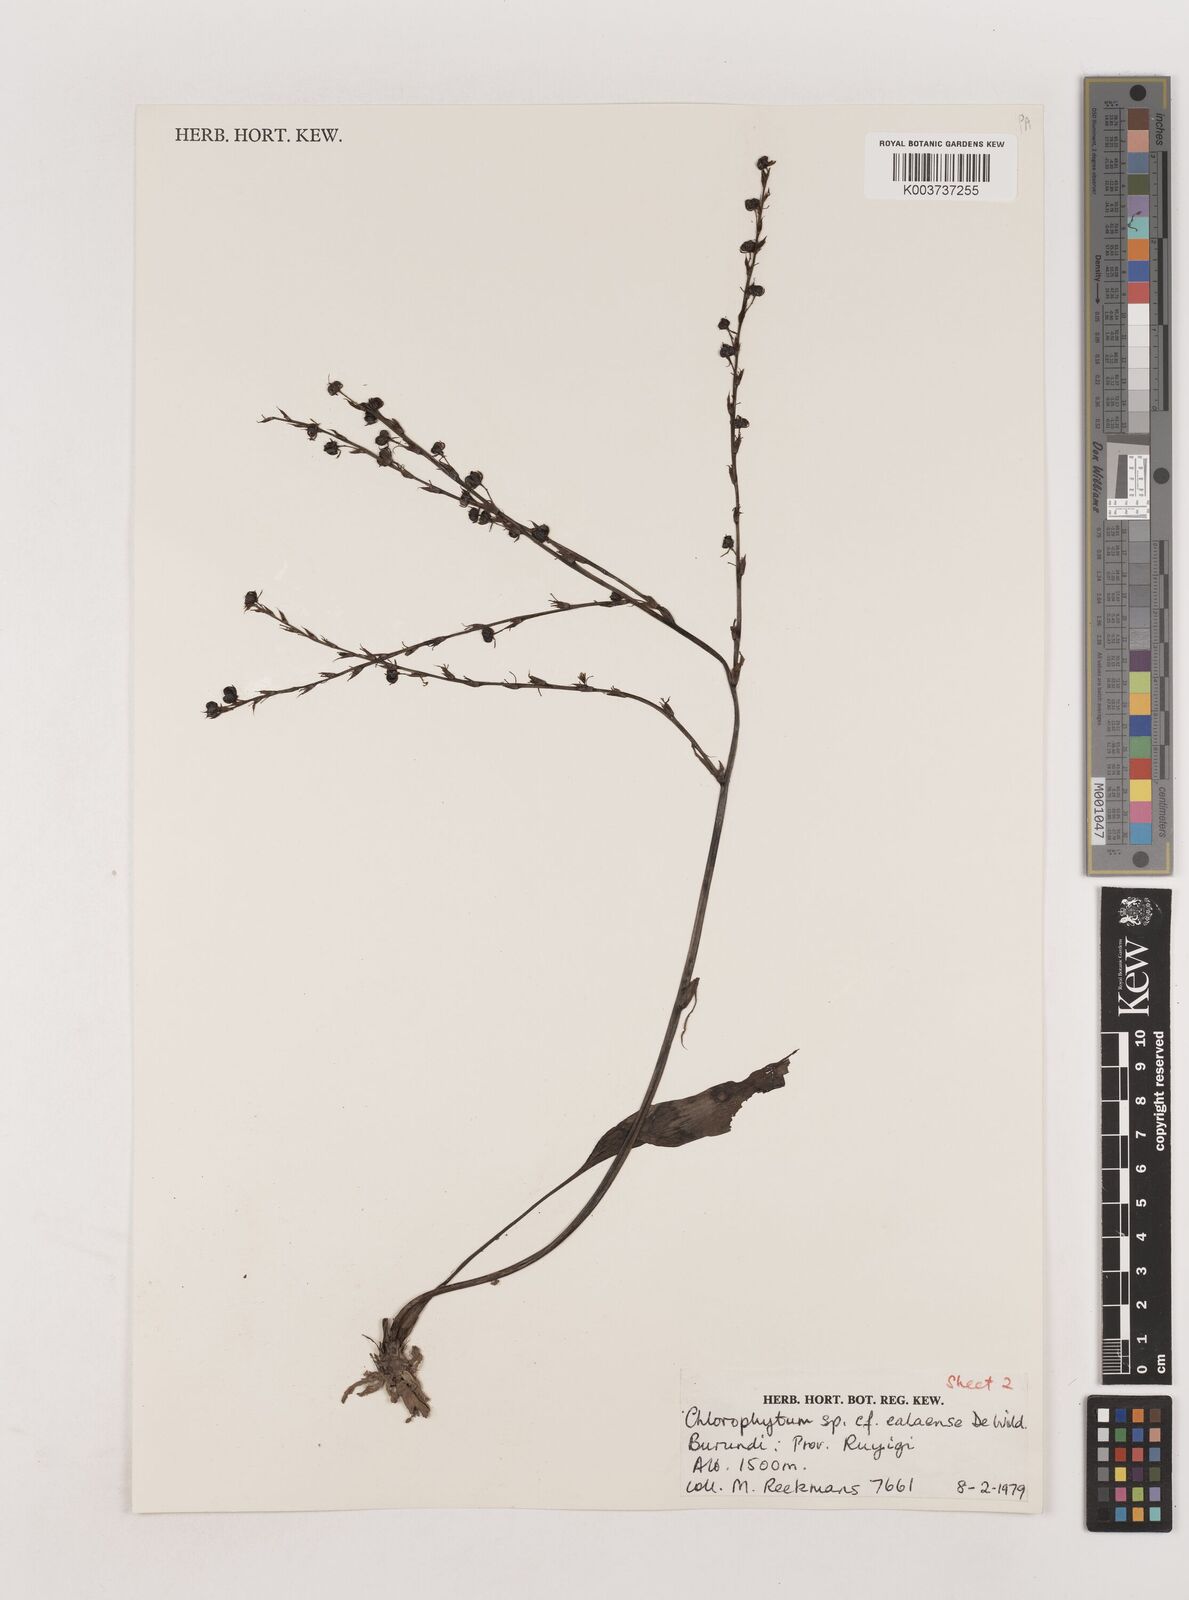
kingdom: Plantae
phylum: Tracheophyta
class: Liliopsida
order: Asparagales
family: Asparagaceae
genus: Chlorophytum
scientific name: Chlorophytum comosum
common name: Spider plant
